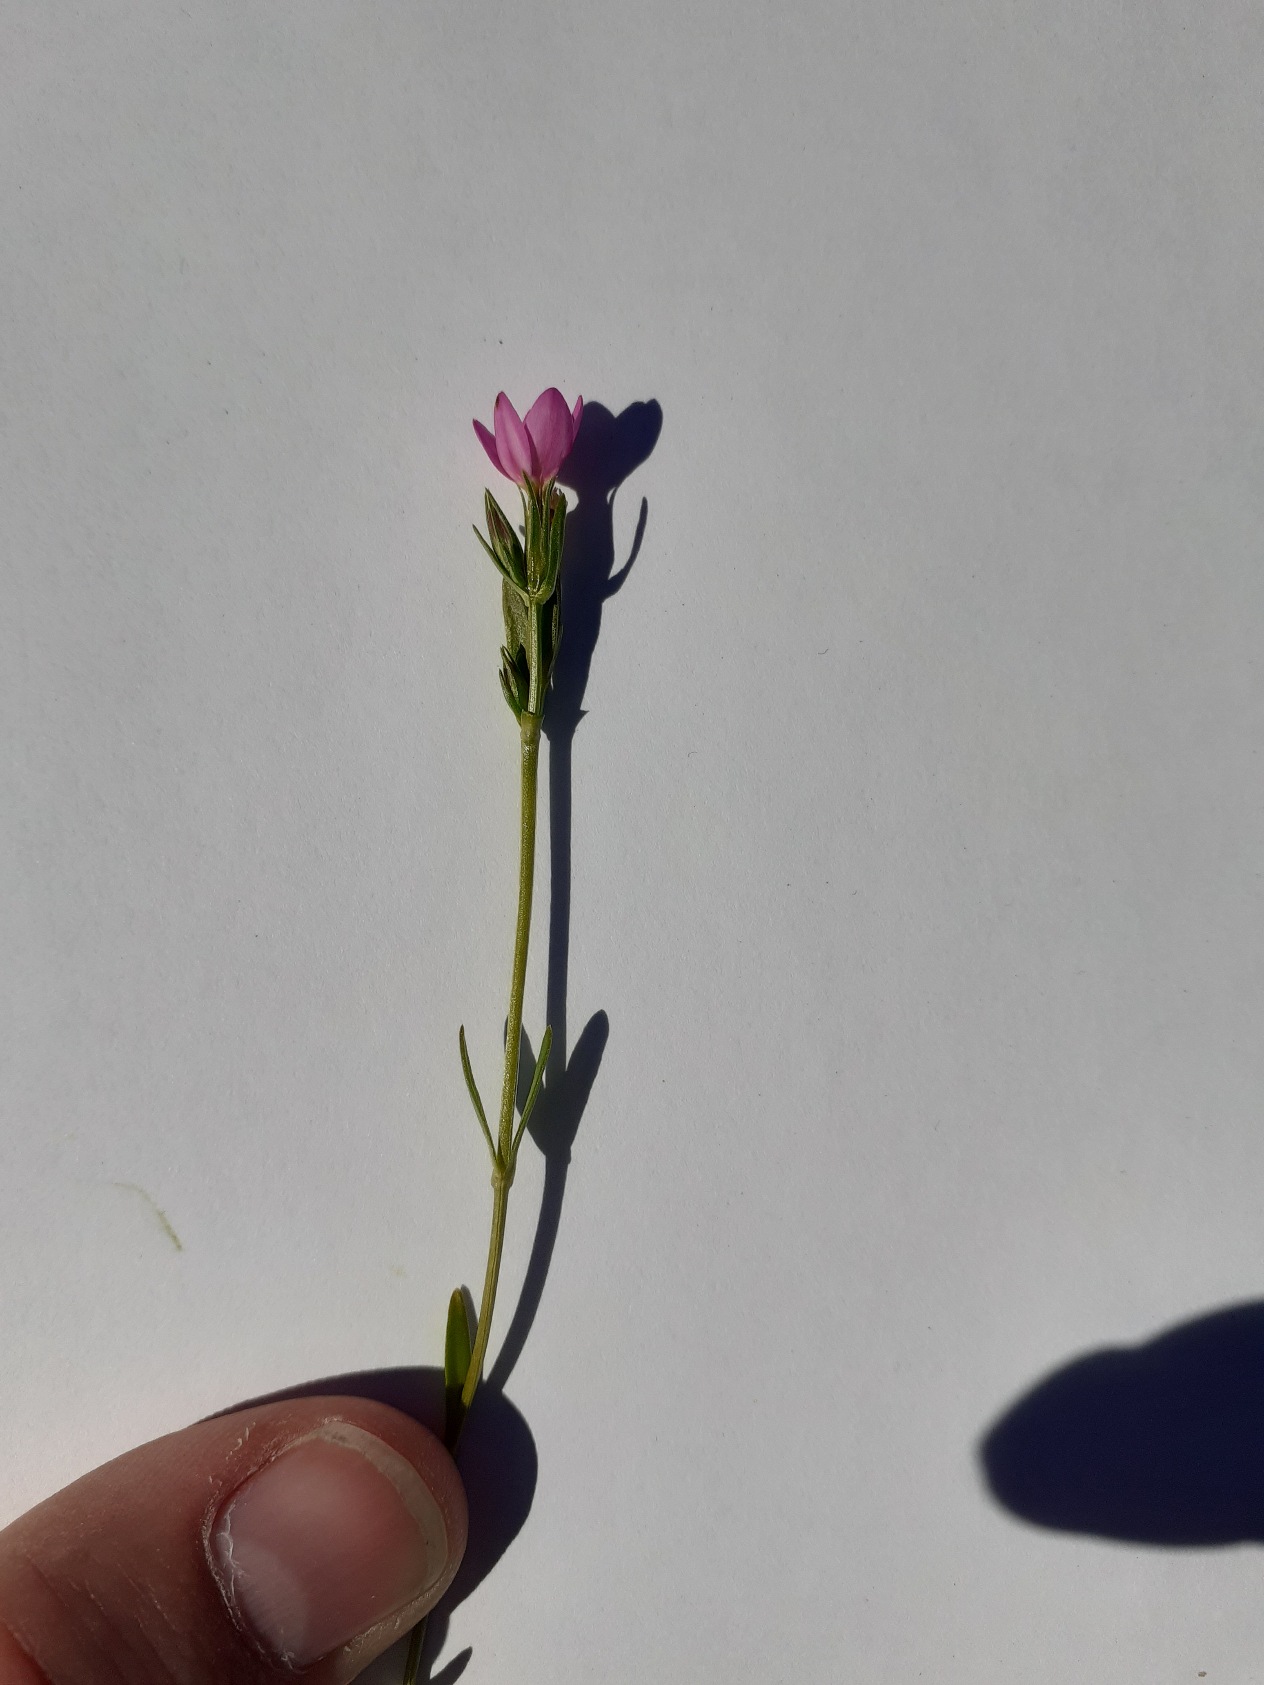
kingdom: Plantae
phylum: Tracheophyta
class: Magnoliopsida
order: Gentianales
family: Gentianaceae
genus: Centaurium
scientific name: Centaurium littorale
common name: Strand-tusindgylden
